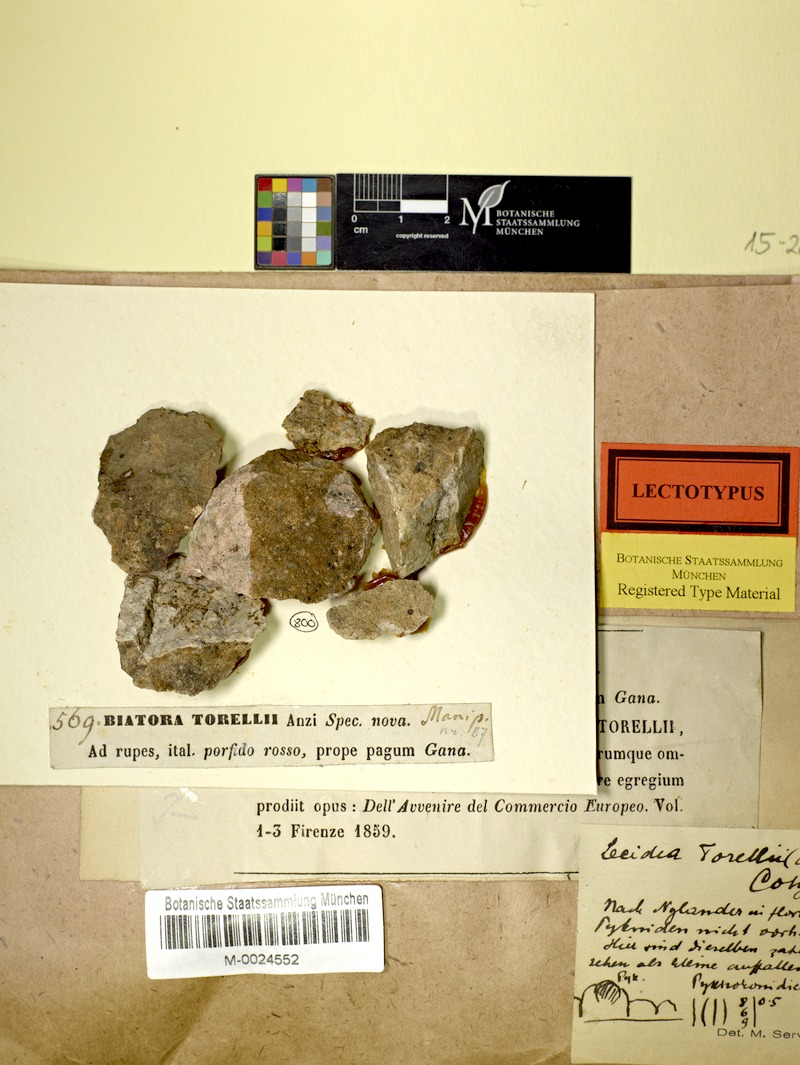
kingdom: Fungi
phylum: Ascomycota
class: Lecanoromycetes
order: Baeomycetales
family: Baeomycetaceae
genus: Ainoa
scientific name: Ainoa mooreana
